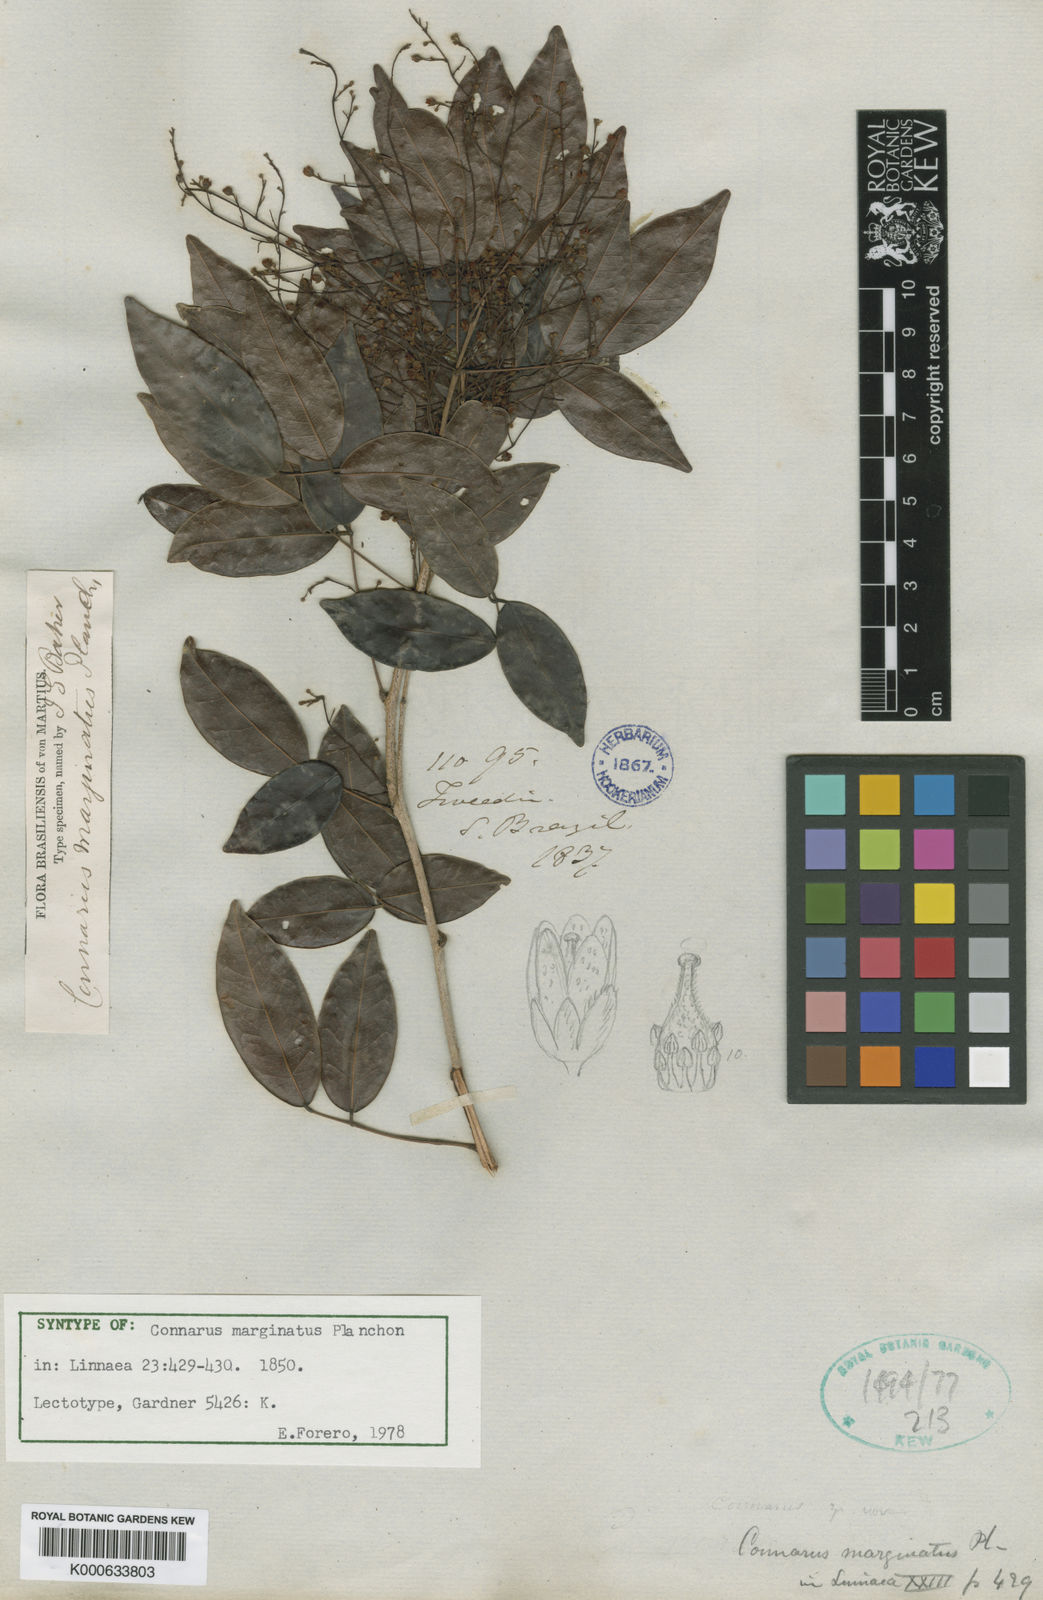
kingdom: Plantae
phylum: Tracheophyta
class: Magnoliopsida
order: Oxalidales
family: Connaraceae
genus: Connarus
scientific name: Connarus marginatus
